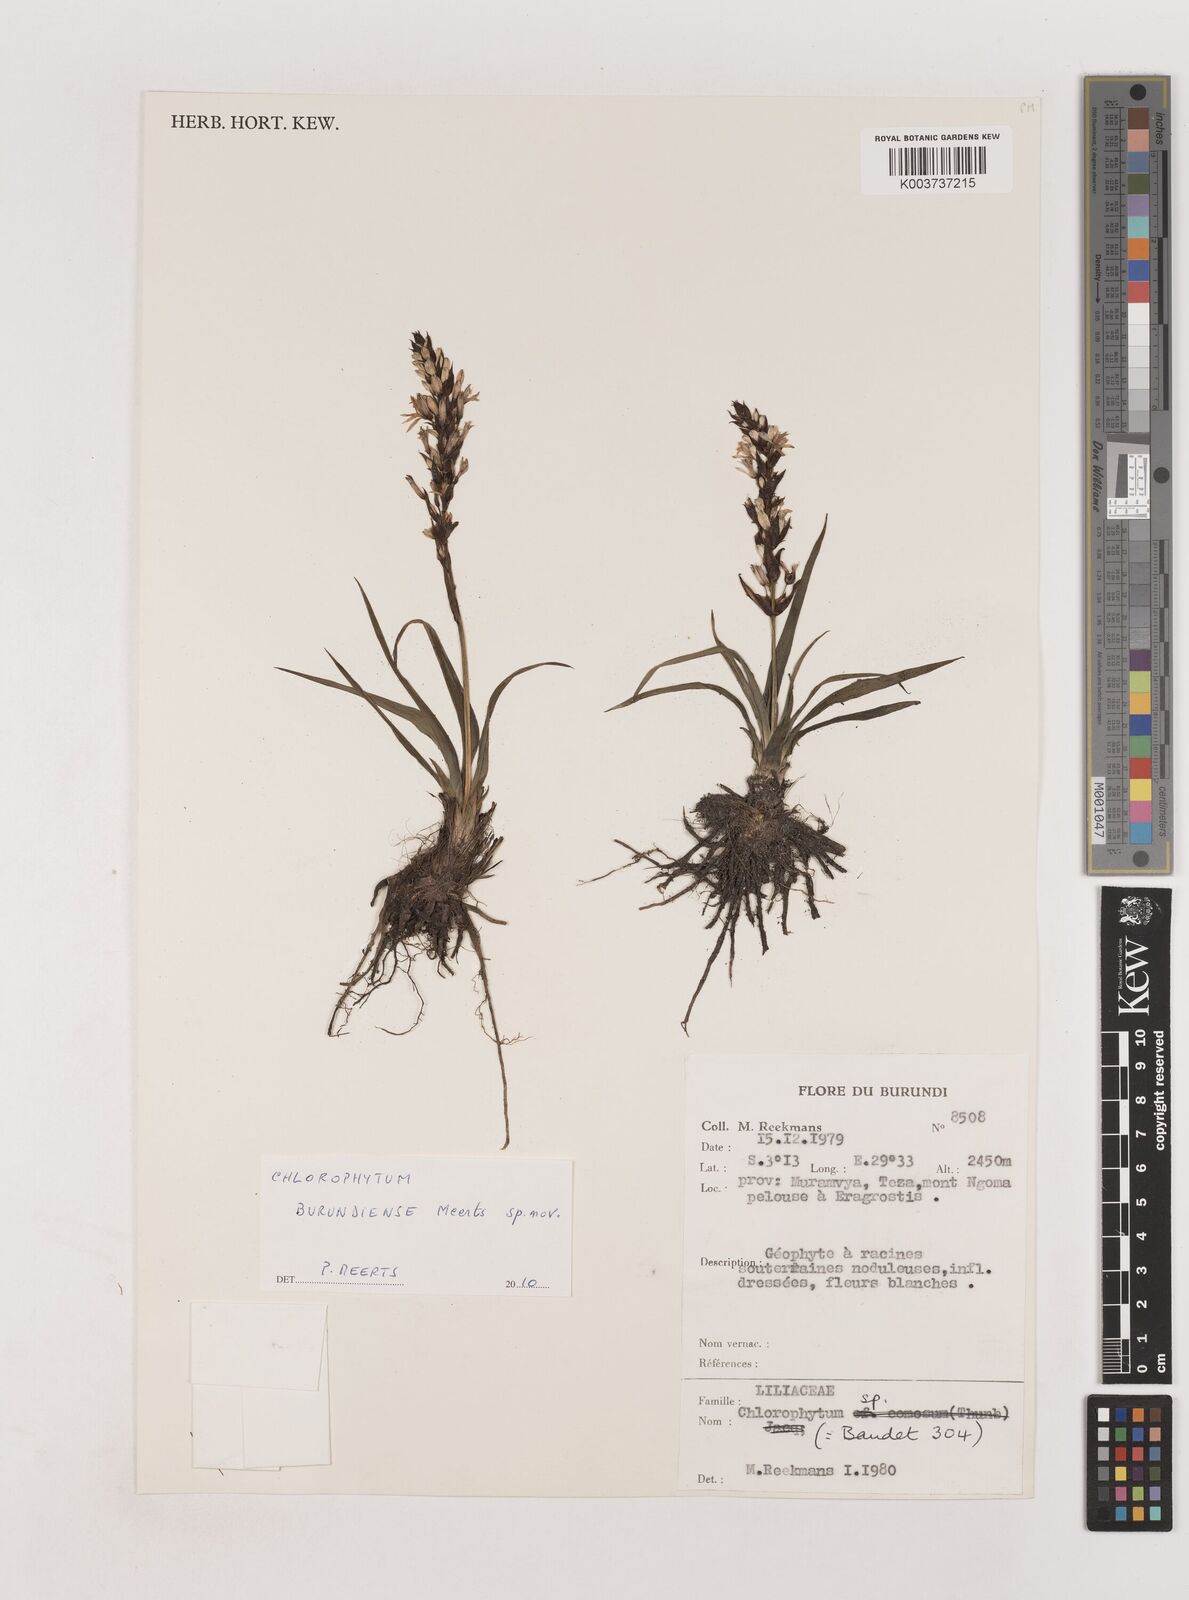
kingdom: Plantae
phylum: Tracheophyta
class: Liliopsida
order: Asparagales
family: Asparagaceae
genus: Chlorophytum
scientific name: Chlorophytum burundiense
